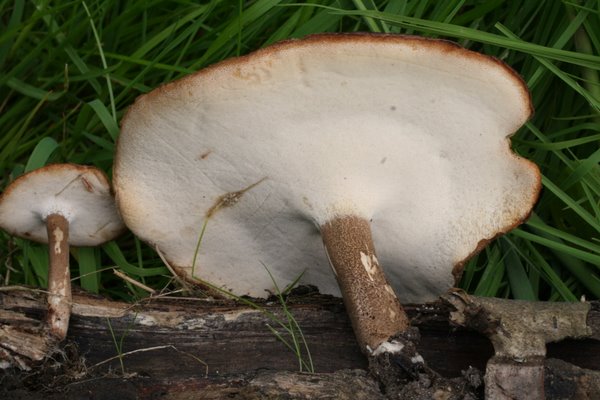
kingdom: Fungi
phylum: Basidiomycota
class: Agaricomycetes
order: Polyporales
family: Polyporaceae
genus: Lentinus
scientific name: Lentinus substrictus
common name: forårs-stilkporesvamp
